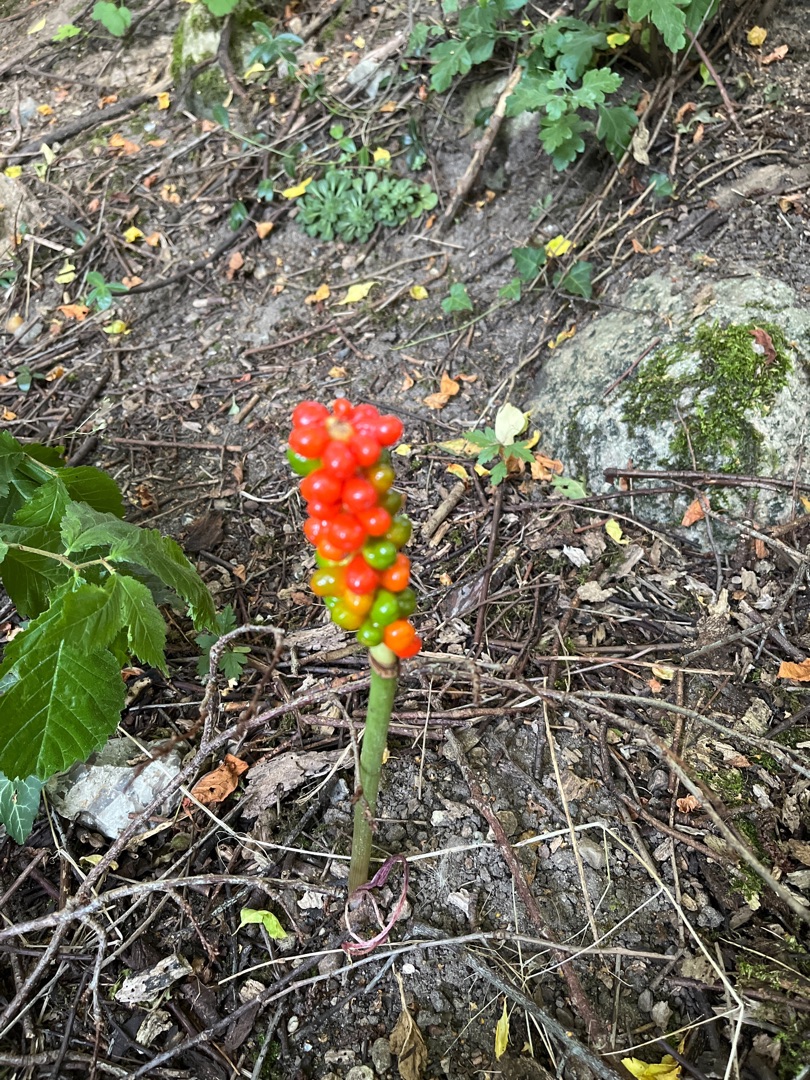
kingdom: Plantae
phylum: Tracheophyta
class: Liliopsida
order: Alismatales
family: Araceae
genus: Arum
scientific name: Arum
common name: Arumslægten
